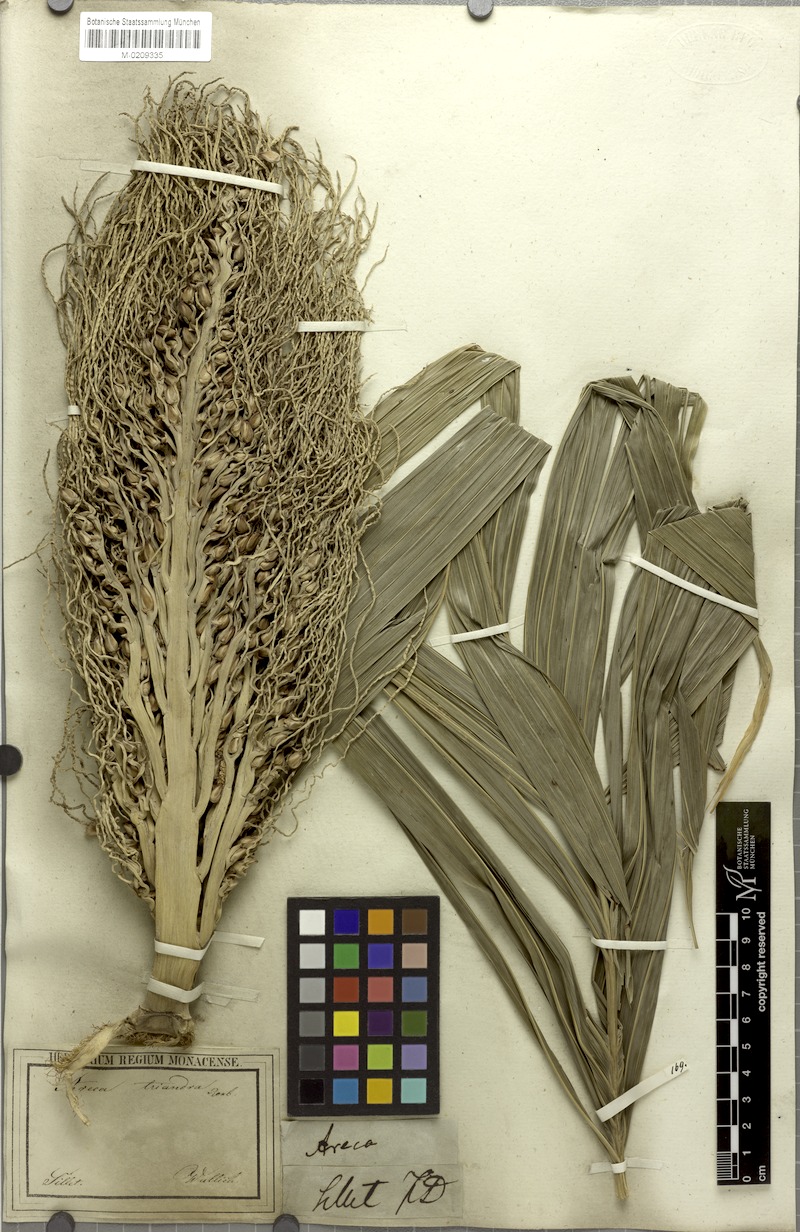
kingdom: Plantae
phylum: Tracheophyta
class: Liliopsida
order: Arecales
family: Arecaceae
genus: Areca
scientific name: Areca triandra
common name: Australian areca palm
